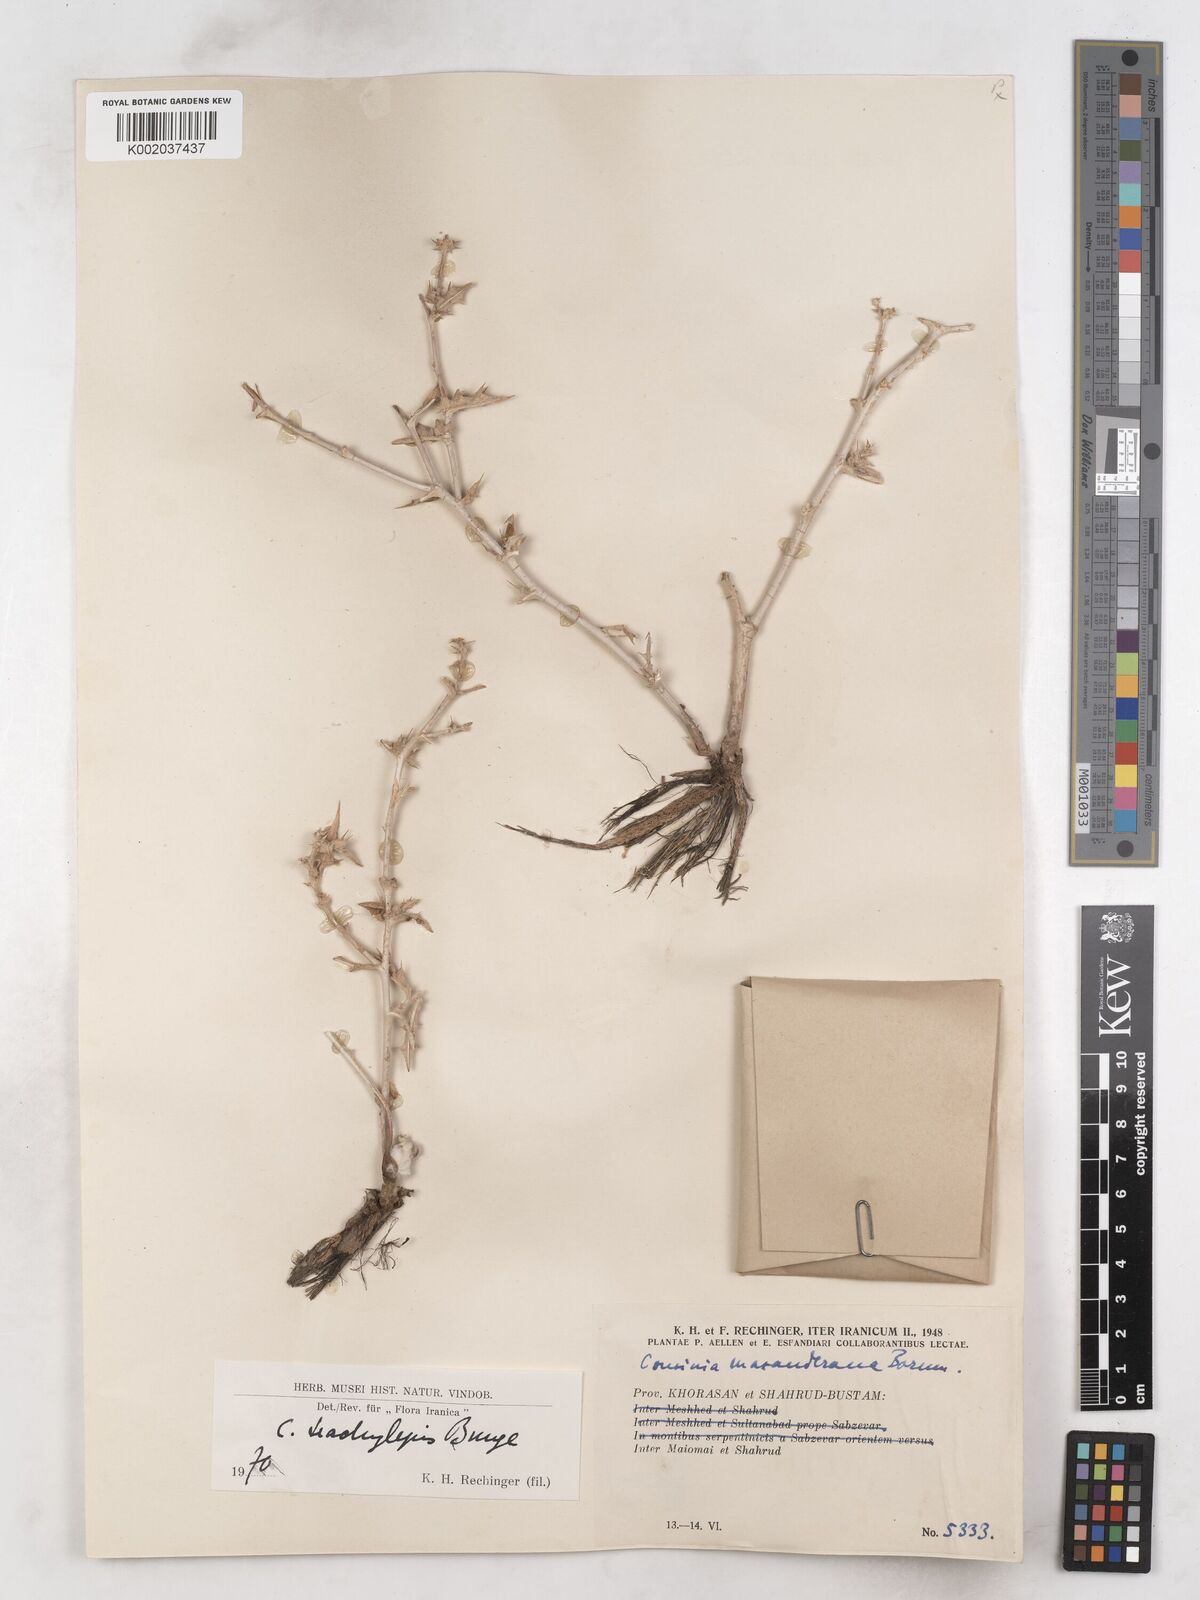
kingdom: Plantae
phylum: Tracheophyta
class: Magnoliopsida
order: Asterales
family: Asteraceae
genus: Cousinia
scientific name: Cousinia trachylepis
